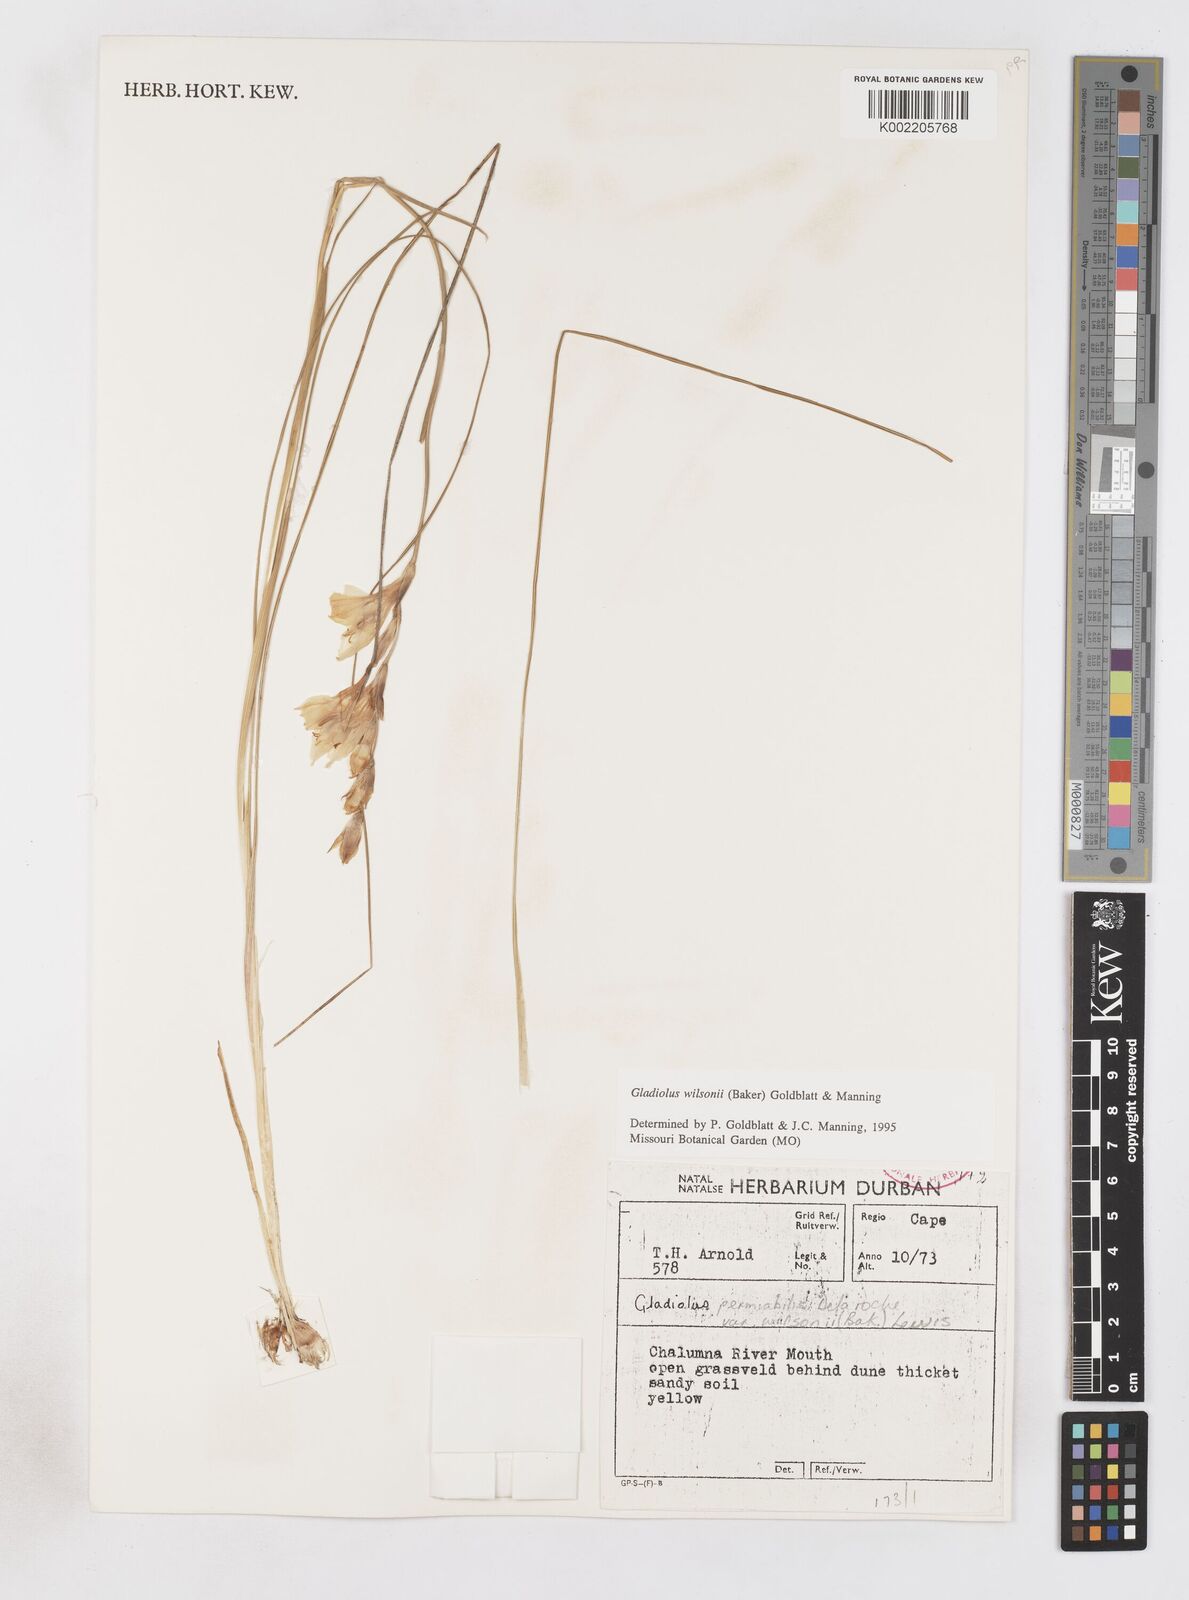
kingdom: Plantae
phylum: Tracheophyta
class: Liliopsida
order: Asparagales
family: Iridaceae
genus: Gladiolus
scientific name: Gladiolus wilsonii
